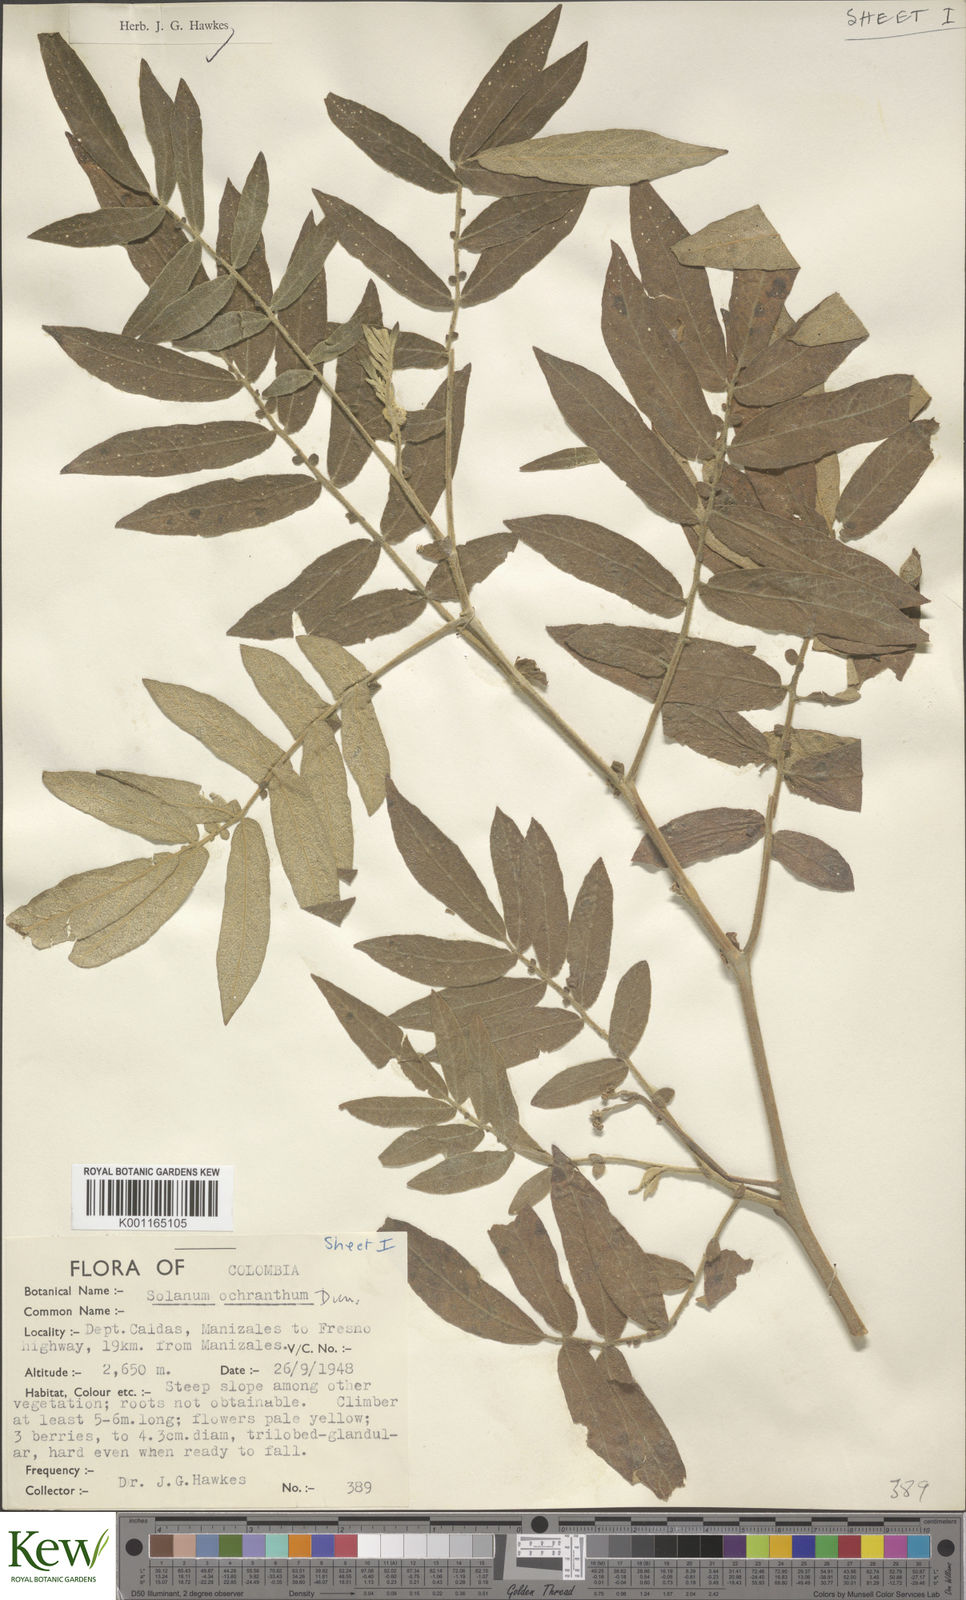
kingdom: Plantae
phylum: Tracheophyta
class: Magnoliopsida
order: Solanales
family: Solanaceae
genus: Solanum
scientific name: Solanum ochranthum
